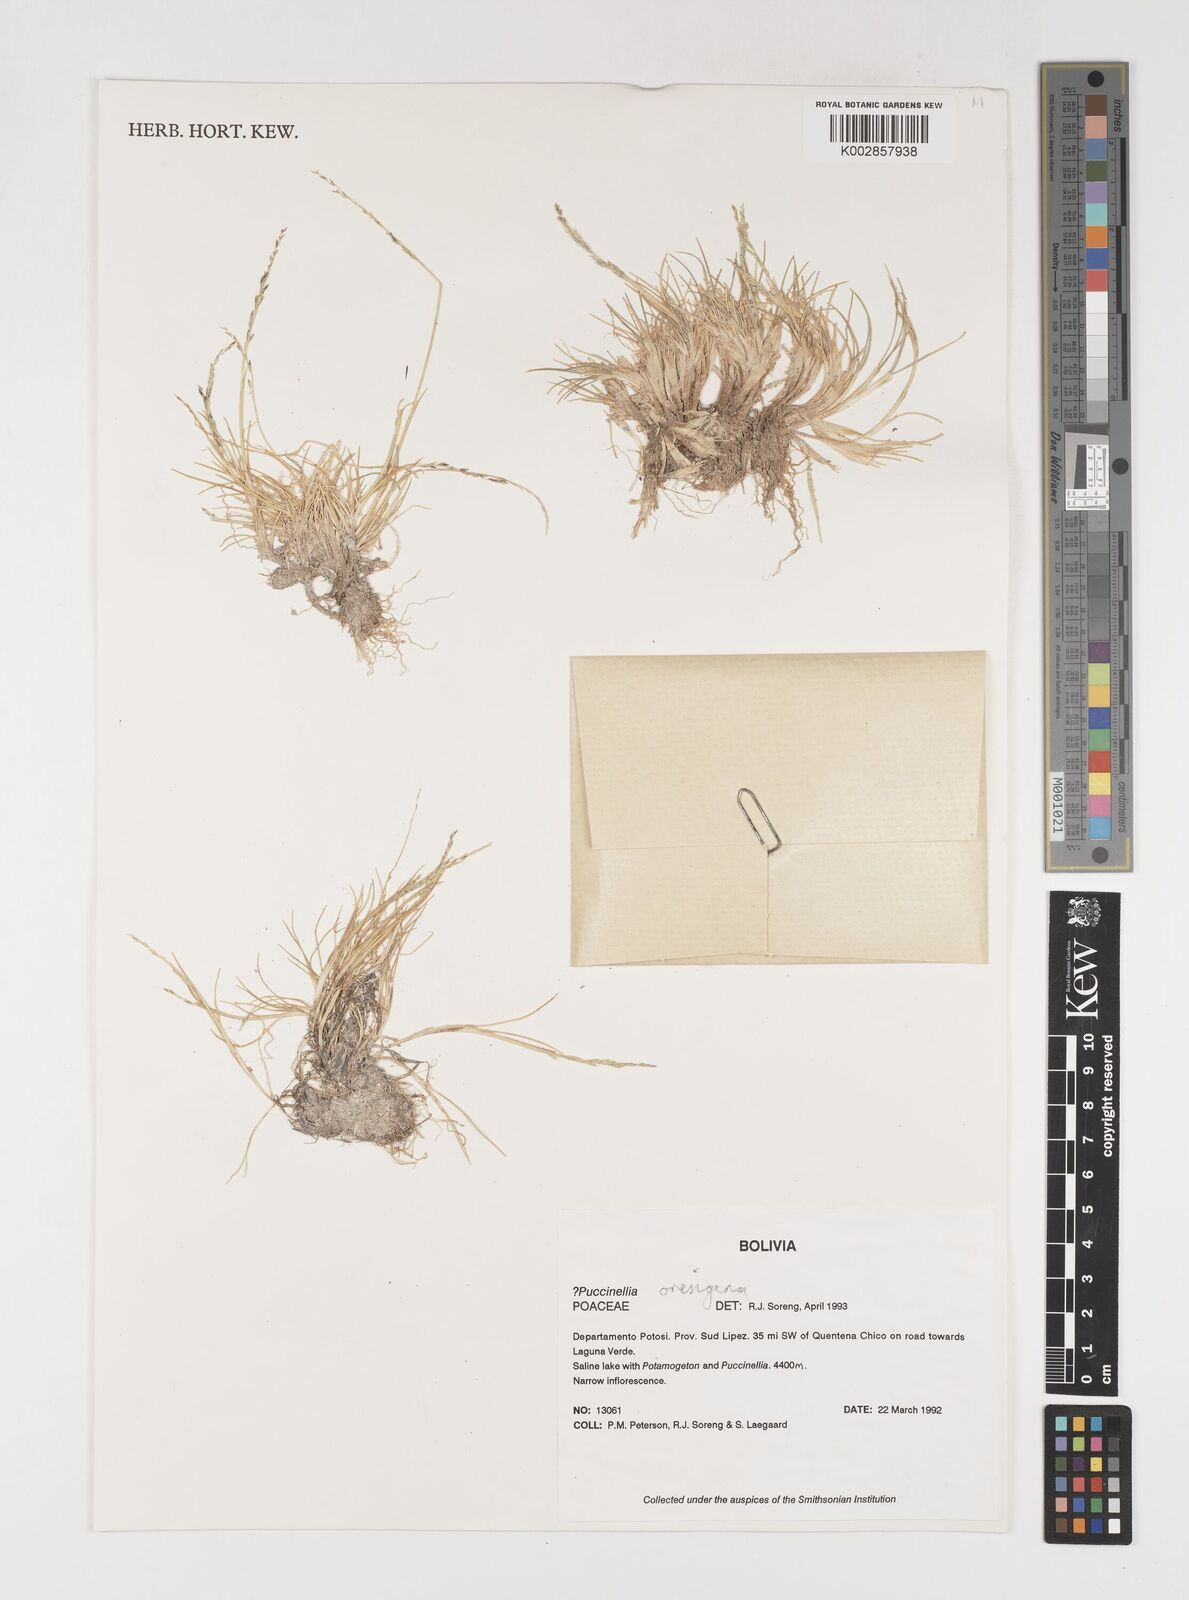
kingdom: Plantae
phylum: Tracheophyta
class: Liliopsida
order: Poales
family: Poaceae
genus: Puccinellia
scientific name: Puccinellia frigida
